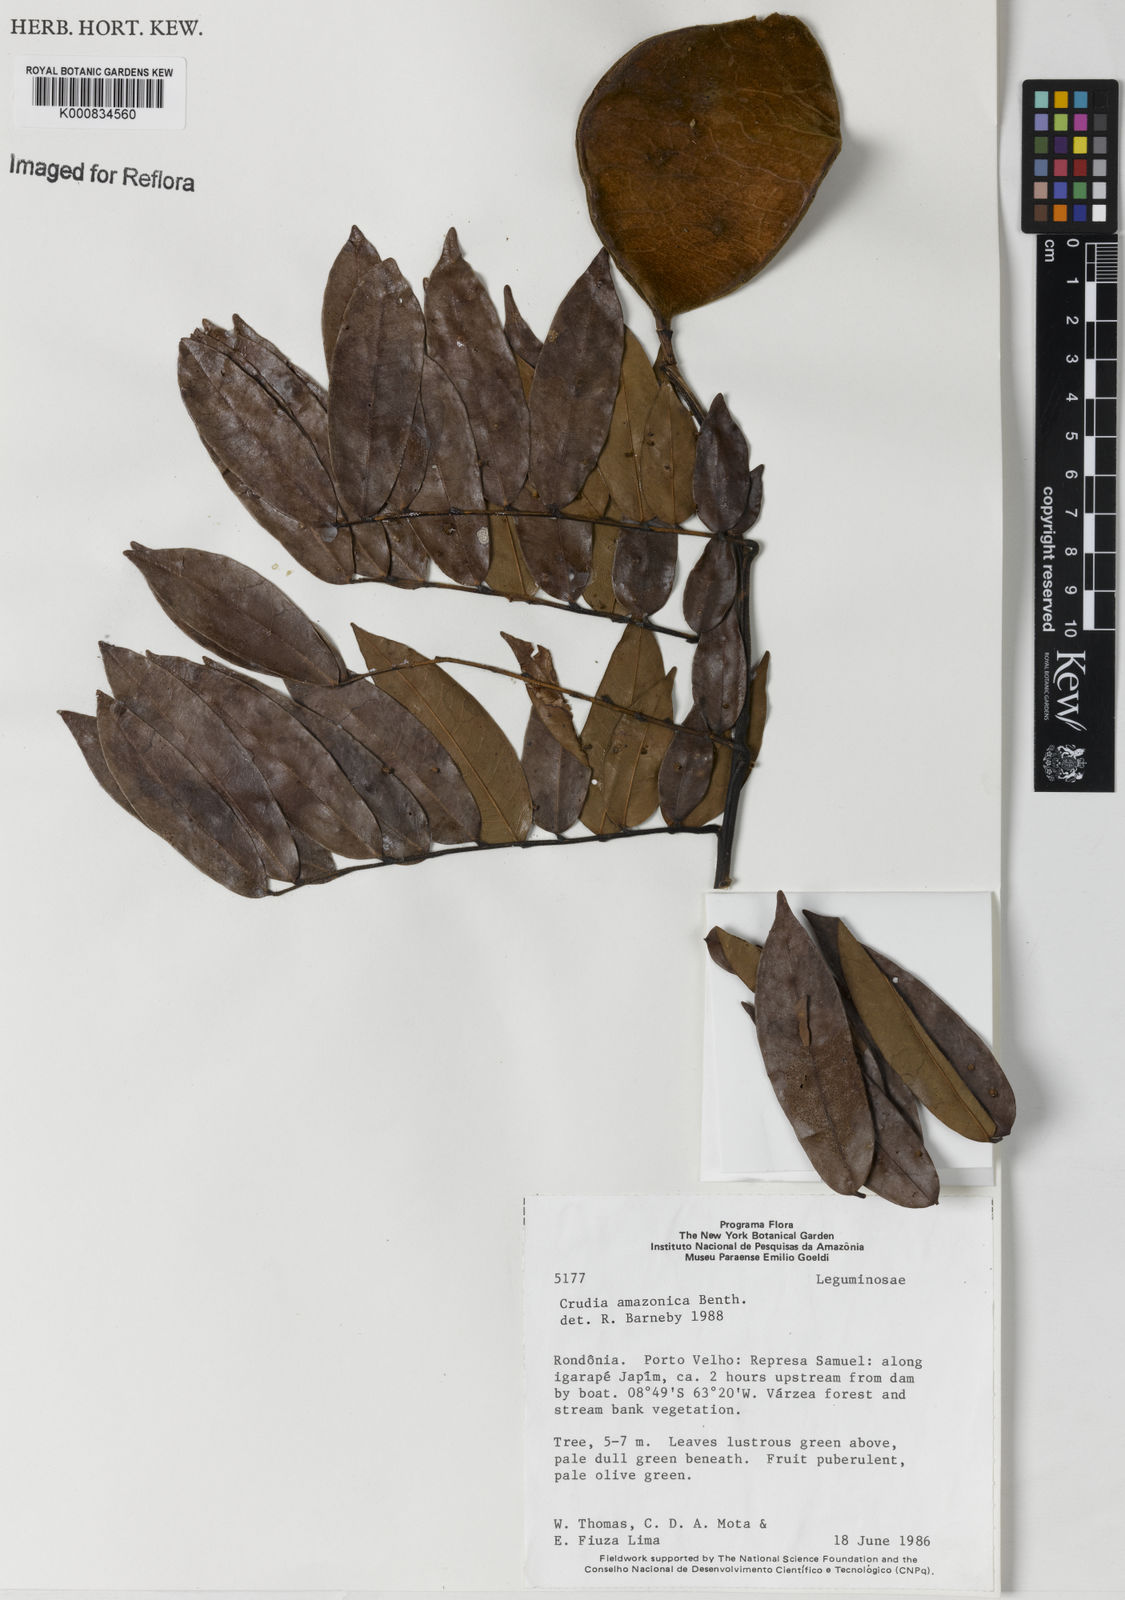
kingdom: Plantae
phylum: Tracheophyta
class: Magnoliopsida
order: Fabales
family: Fabaceae
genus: Crudia
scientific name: Crudia
